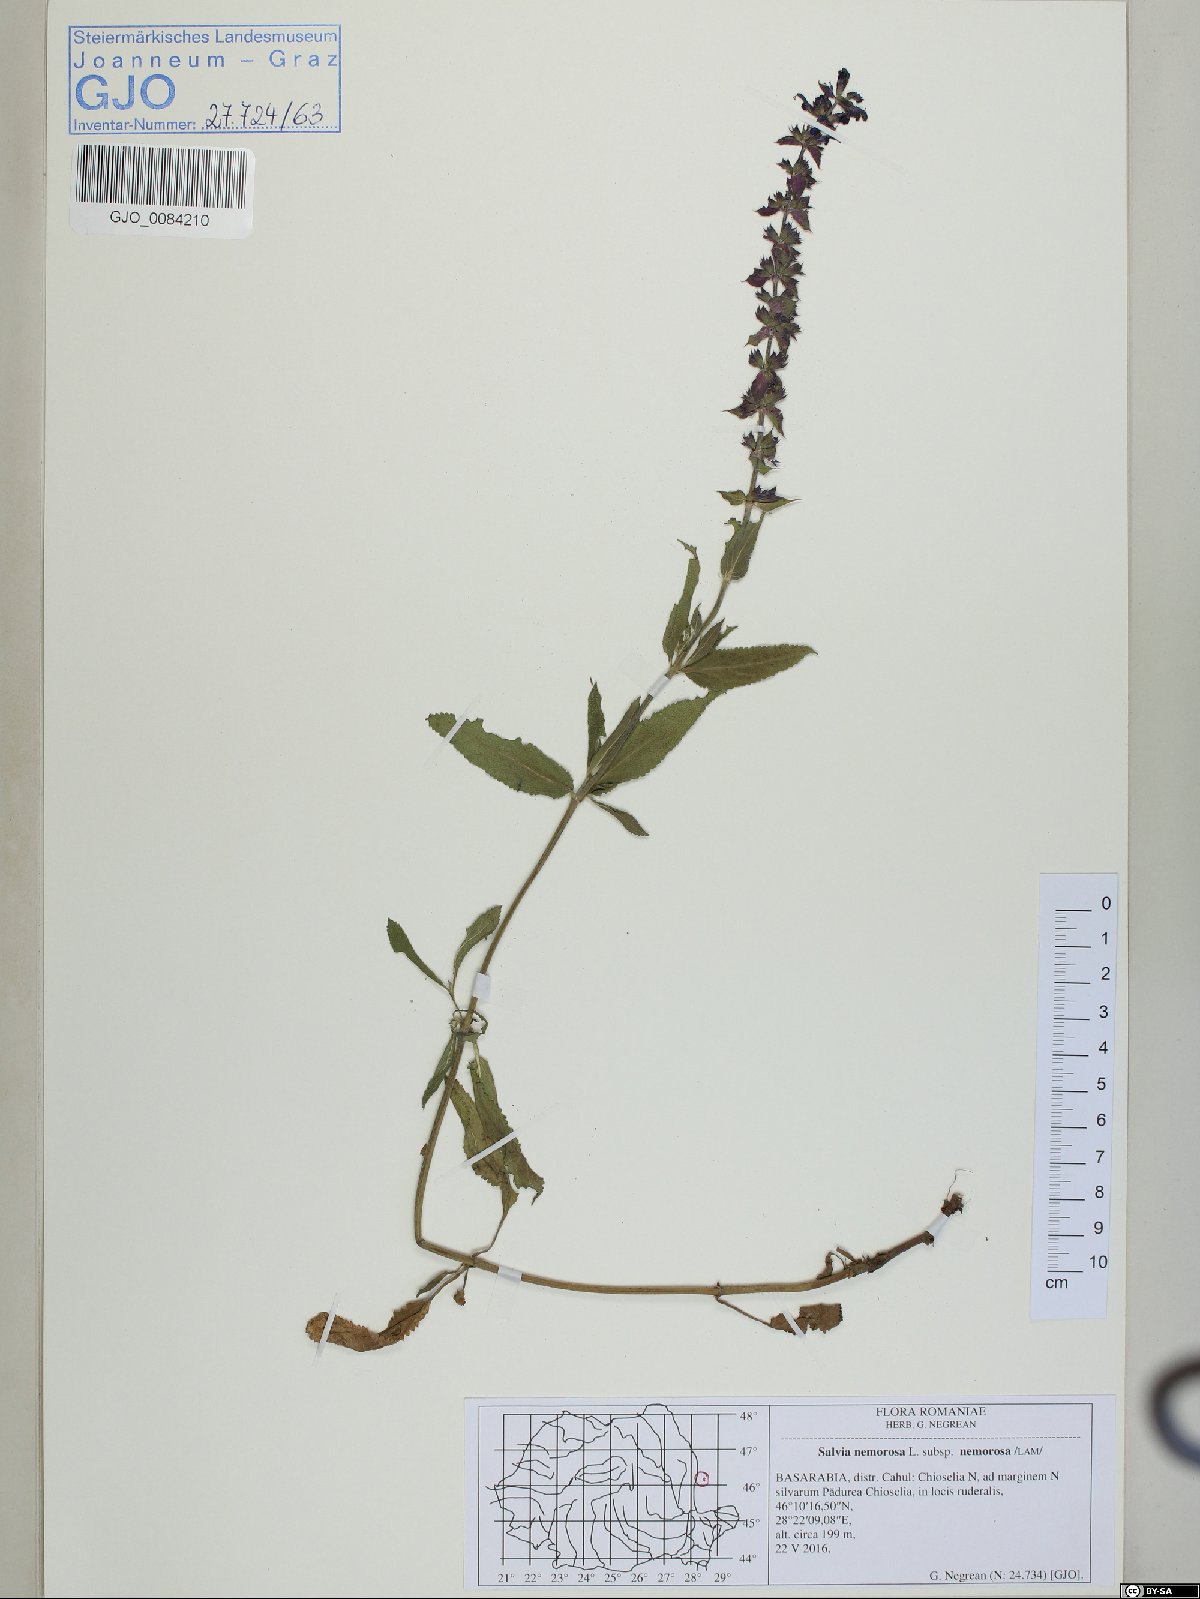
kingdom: Plantae
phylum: Tracheophyta
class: Magnoliopsida
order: Lamiales
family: Lamiaceae
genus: Salvia
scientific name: Salvia nemorosa
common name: Balkan clary
